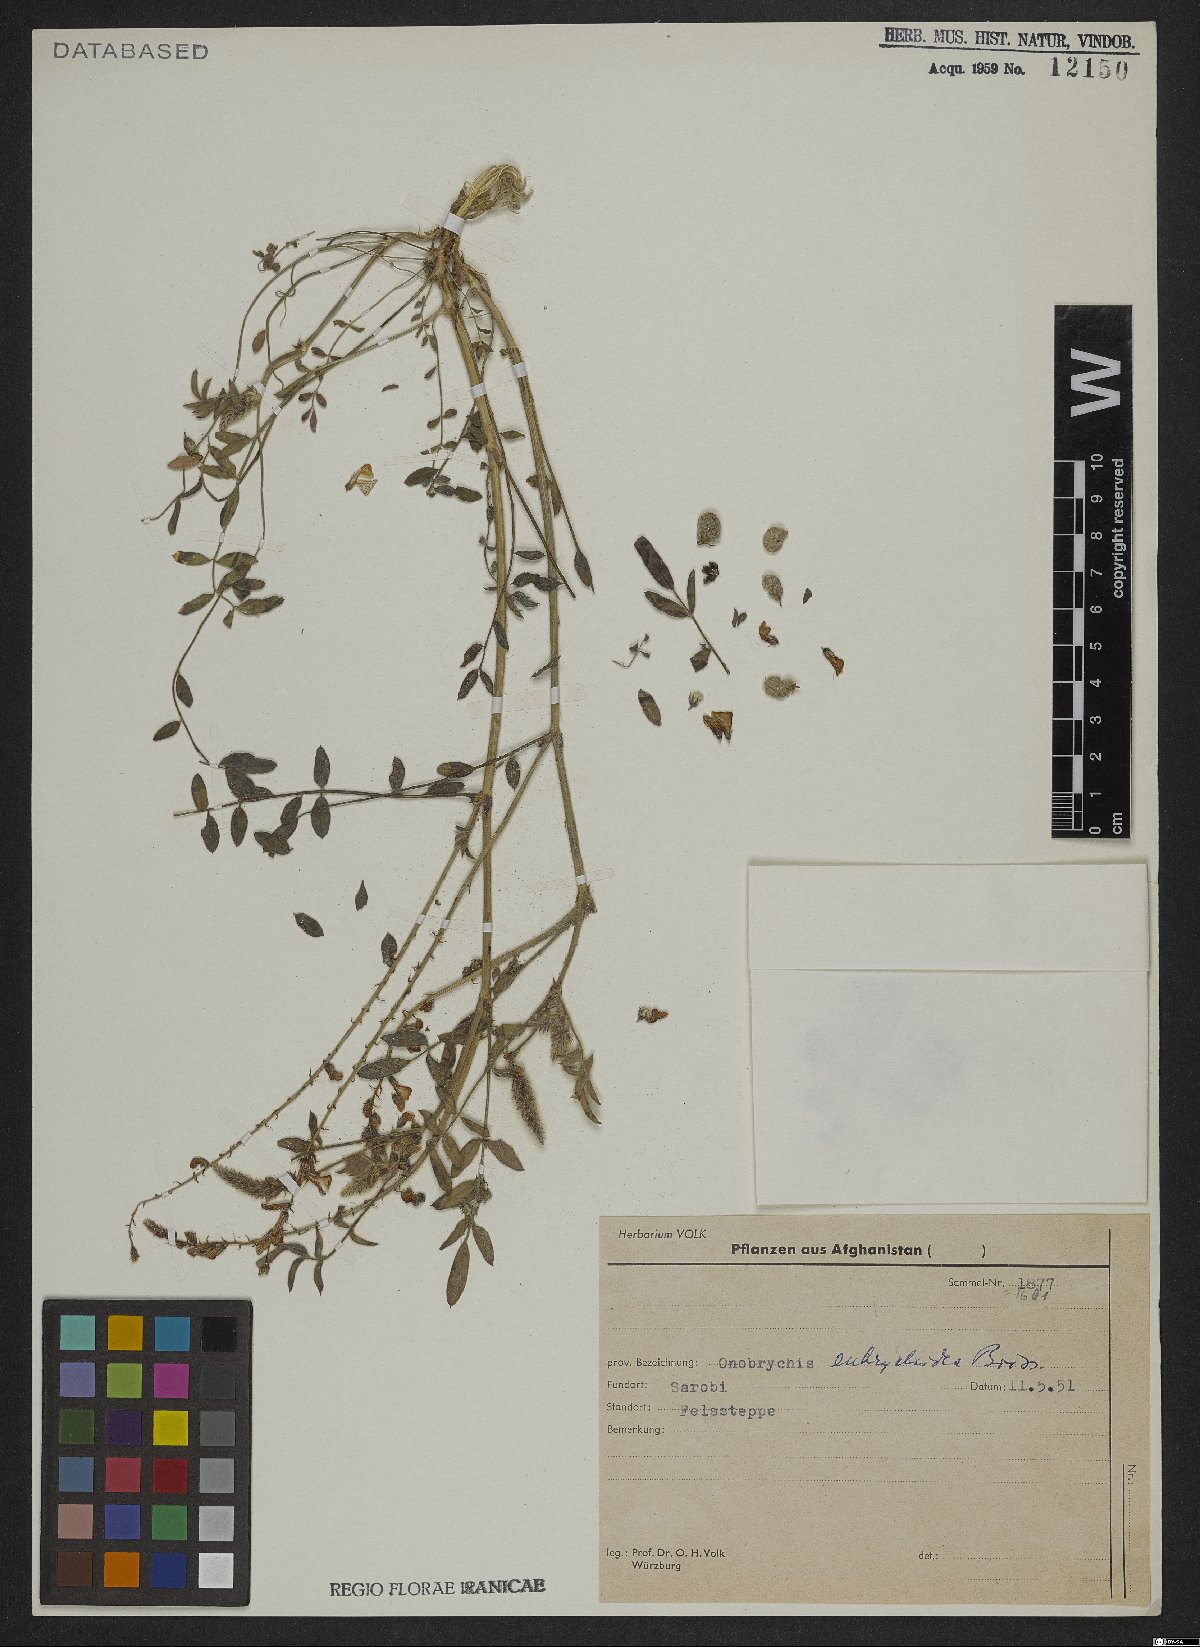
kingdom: Plantae
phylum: Tracheophyta
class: Magnoliopsida
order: Fabales
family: Fabaceae
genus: Onobrychis
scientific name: Onobrychis eubrychidea
